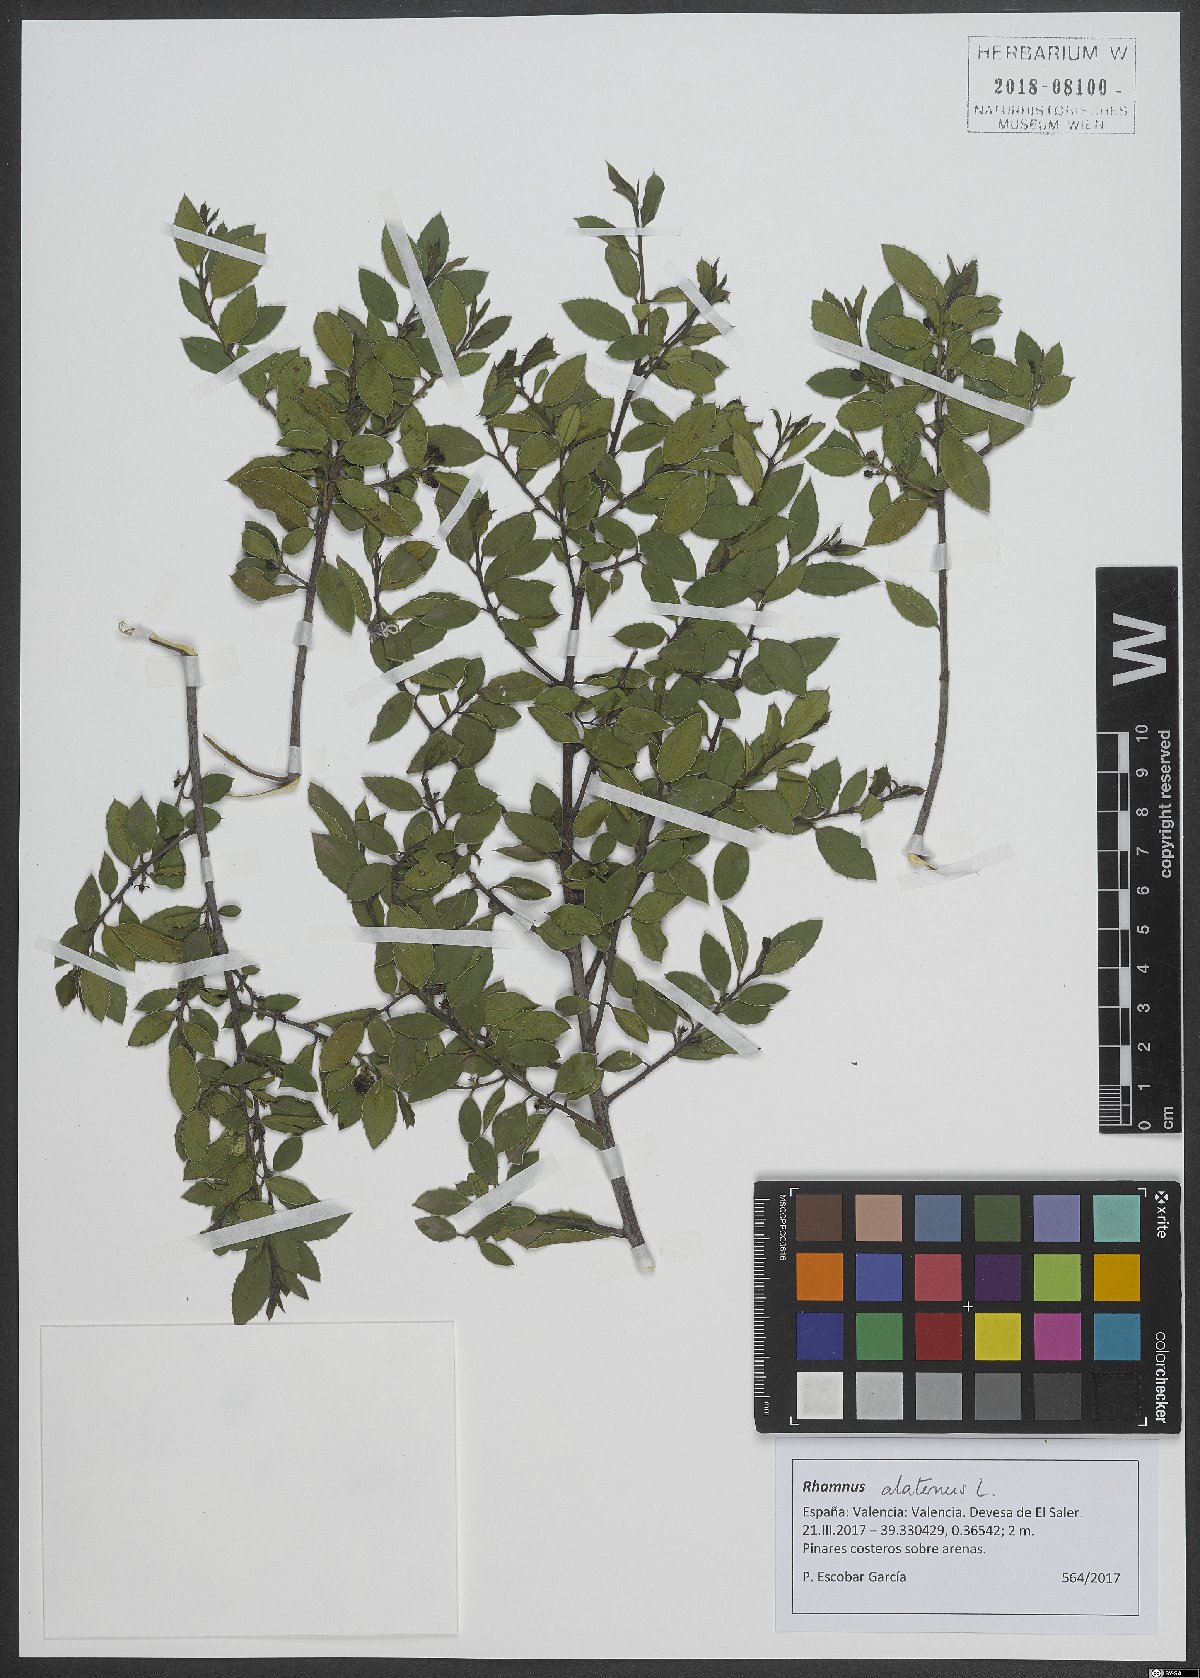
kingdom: Plantae
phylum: Tracheophyta
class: Magnoliopsida
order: Rosales
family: Rhamnaceae
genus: Rhamnus
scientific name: Rhamnus alaternus
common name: Mediterranean buckthorn
